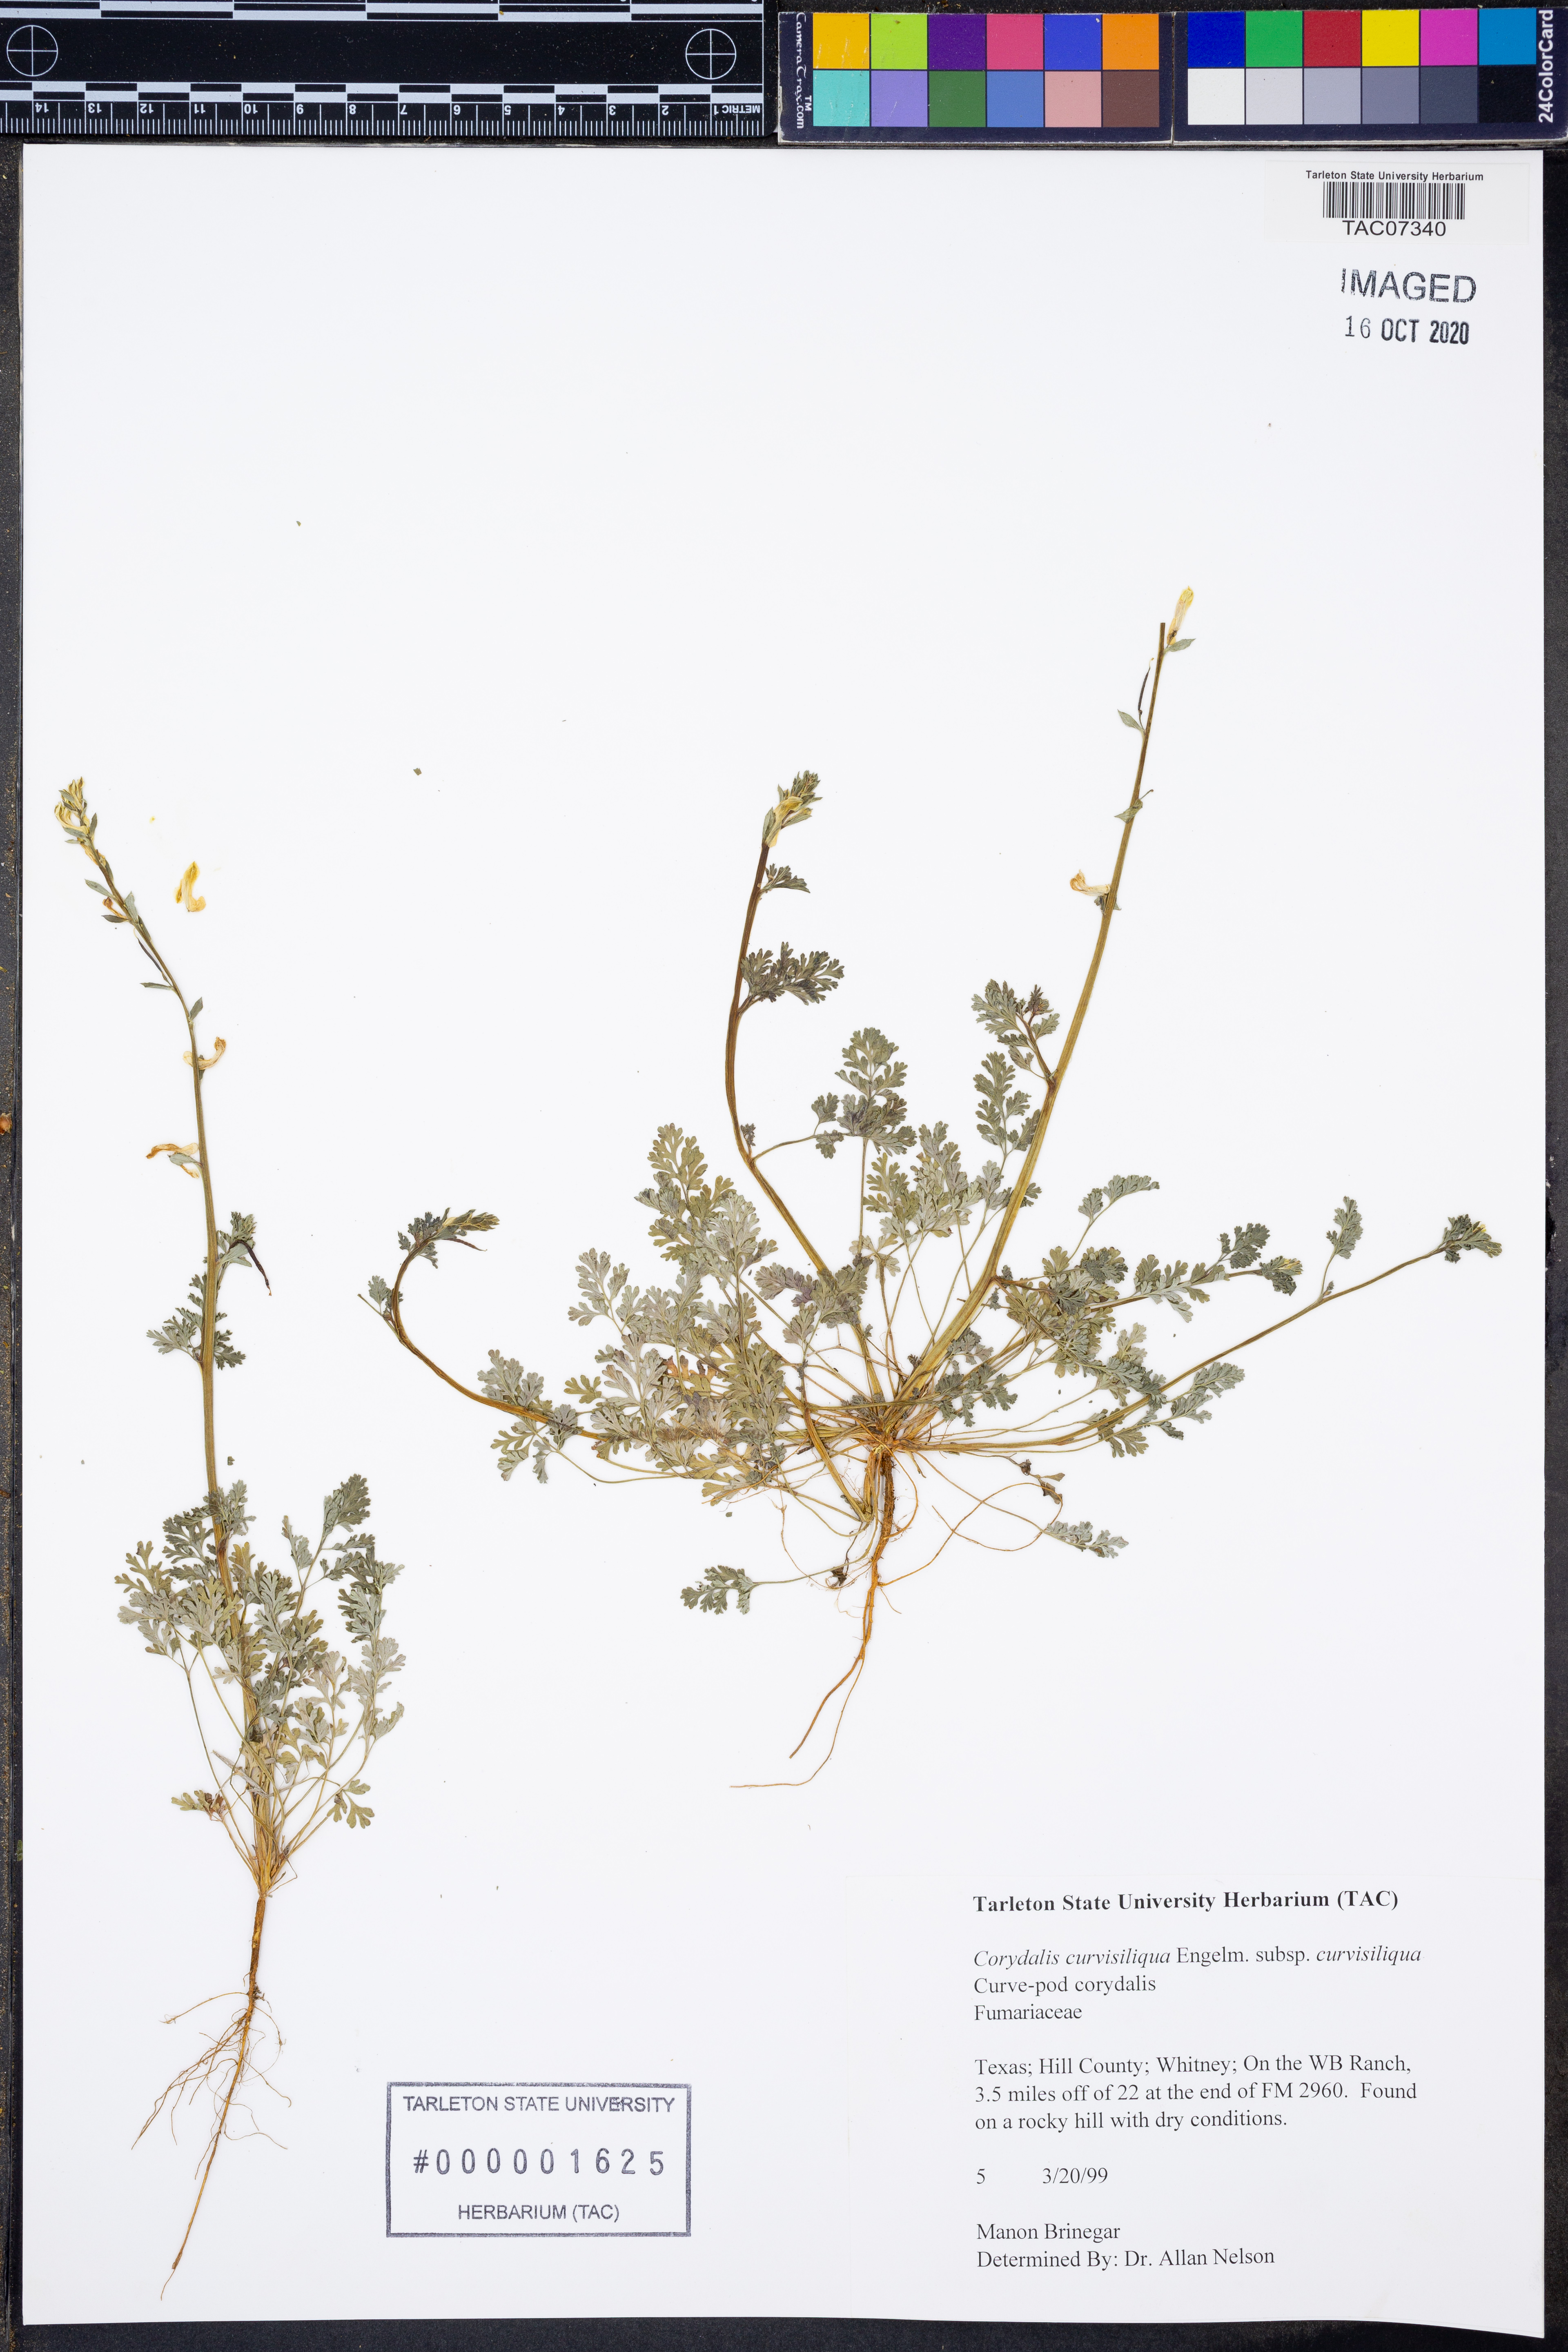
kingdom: Plantae
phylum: Tracheophyta
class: Magnoliopsida
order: Ranunculales
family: Papaveraceae
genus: Corydalis
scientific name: Corydalis curvisiliqua
